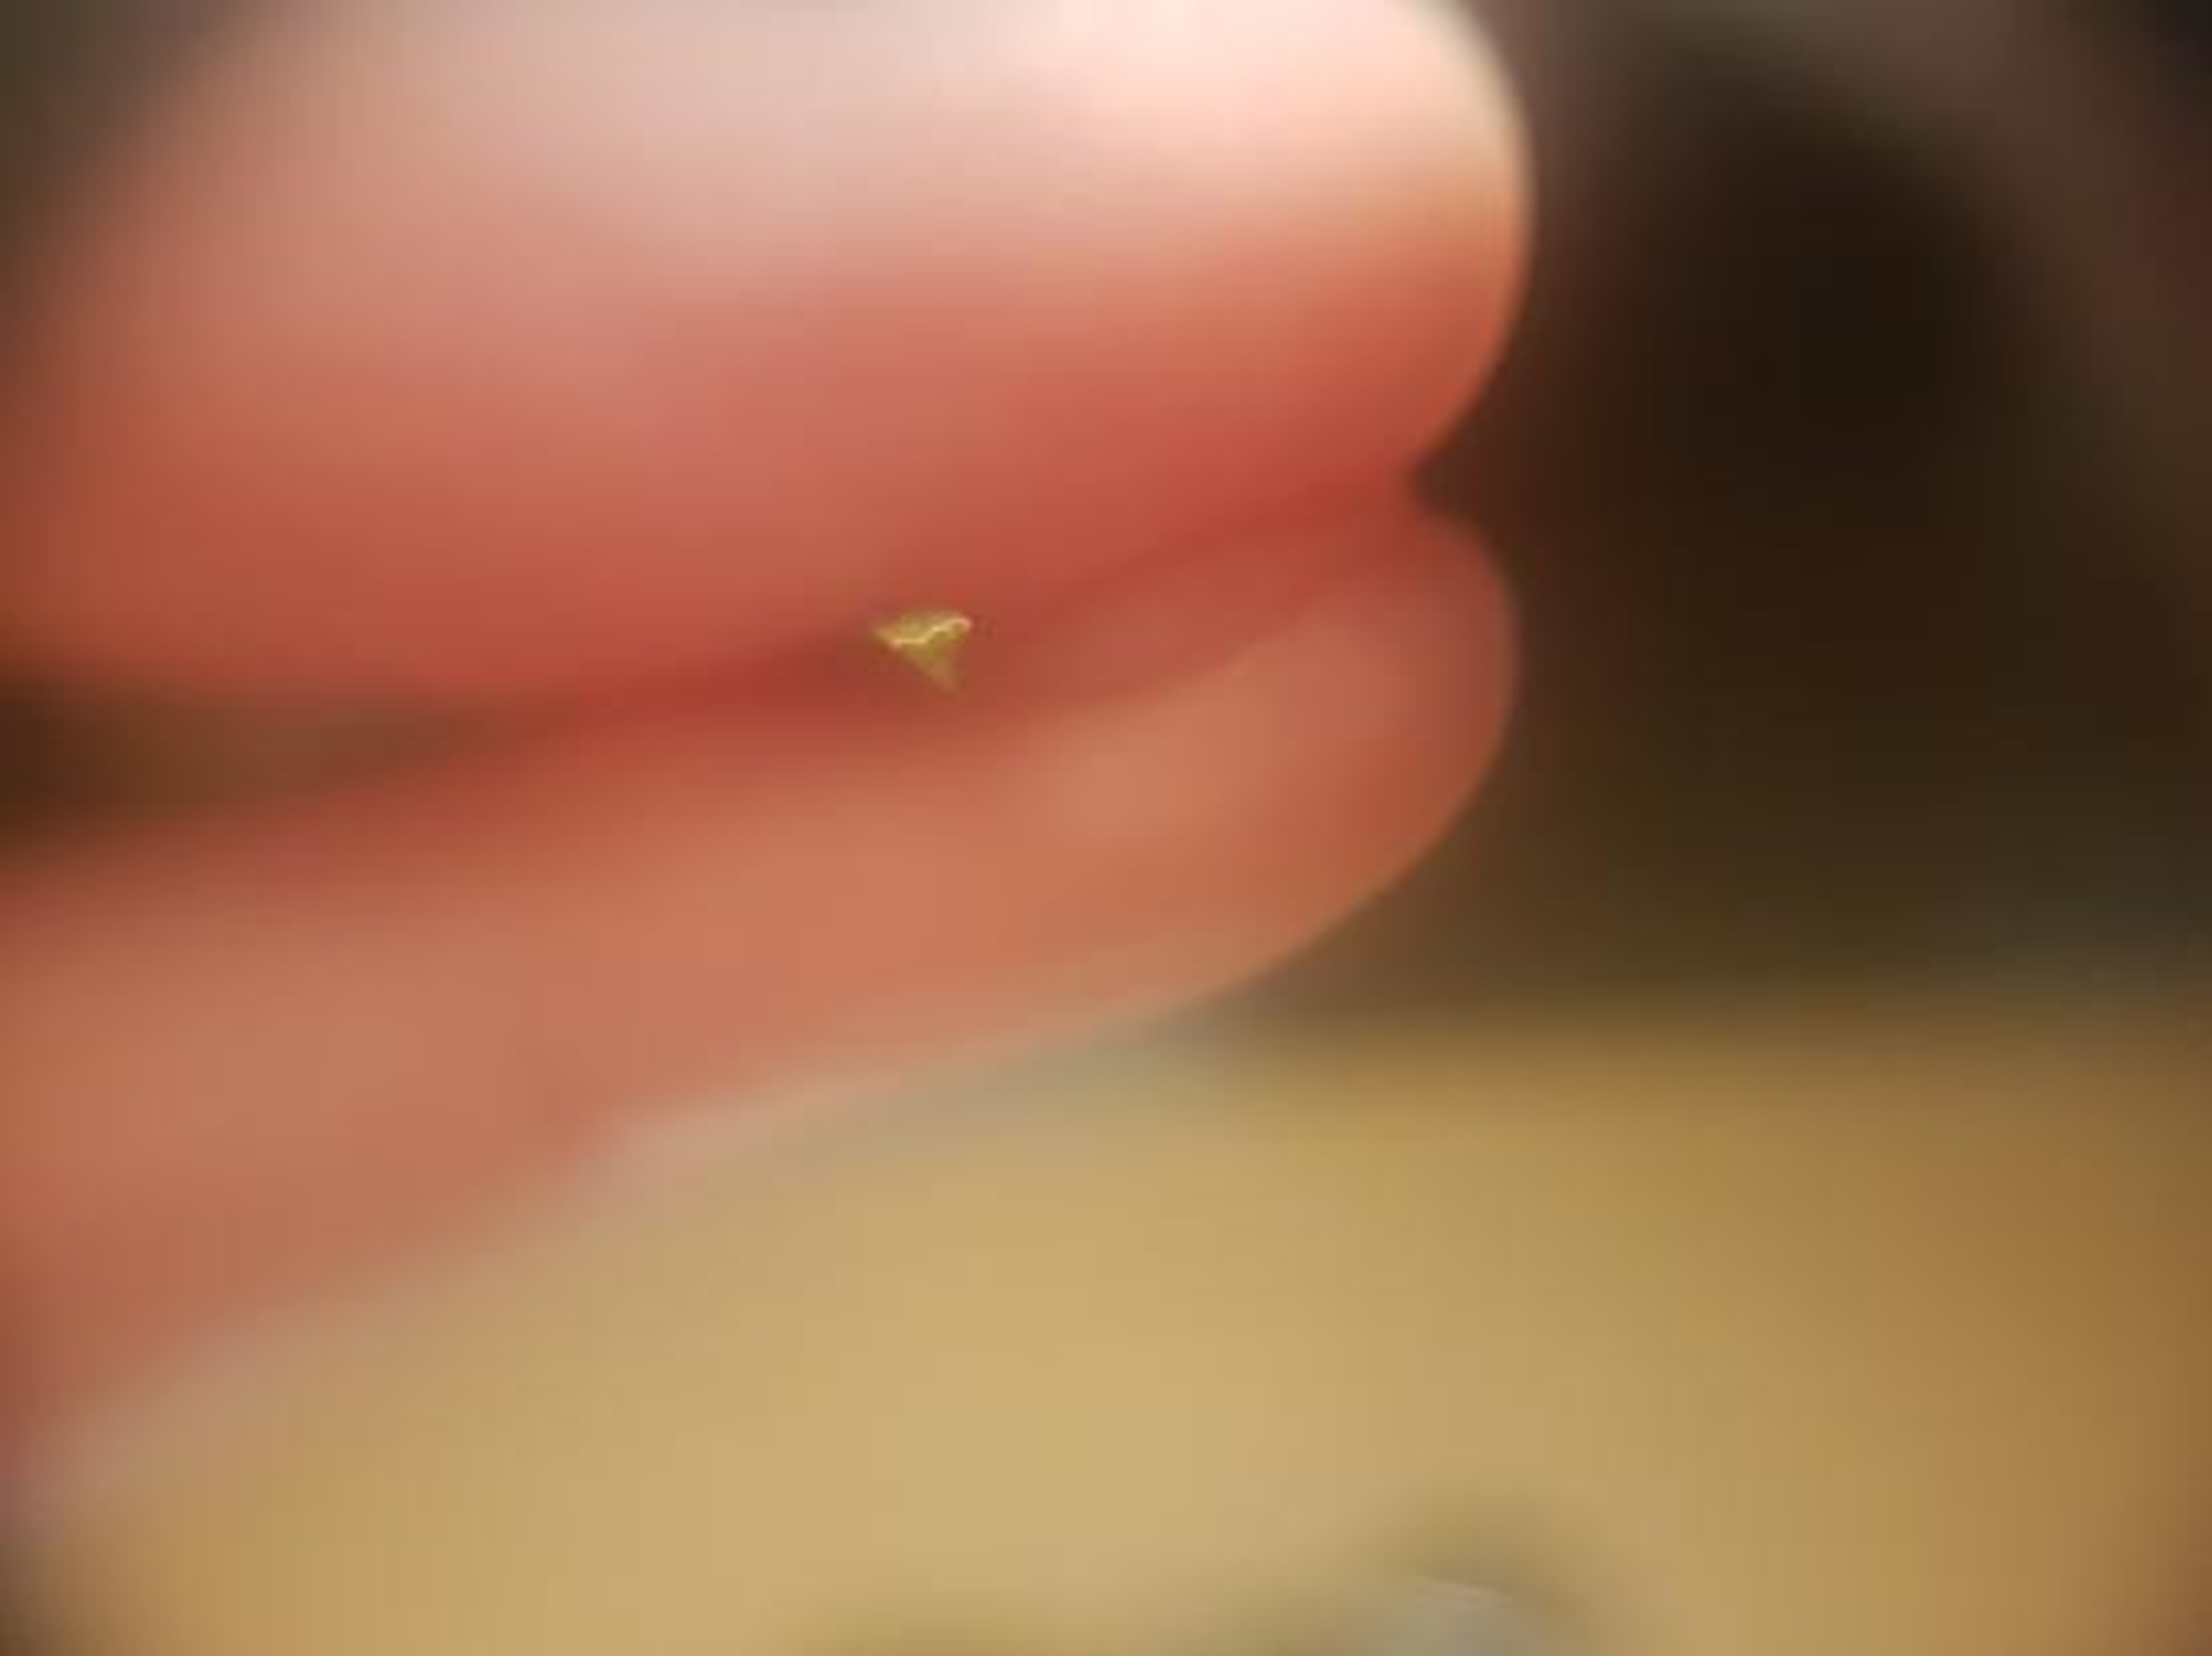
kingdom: Plantae
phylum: Tracheophyta
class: Liliopsida
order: Poales
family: Cyperaceae
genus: Carex
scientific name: Carex nigra
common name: Almindelig star
